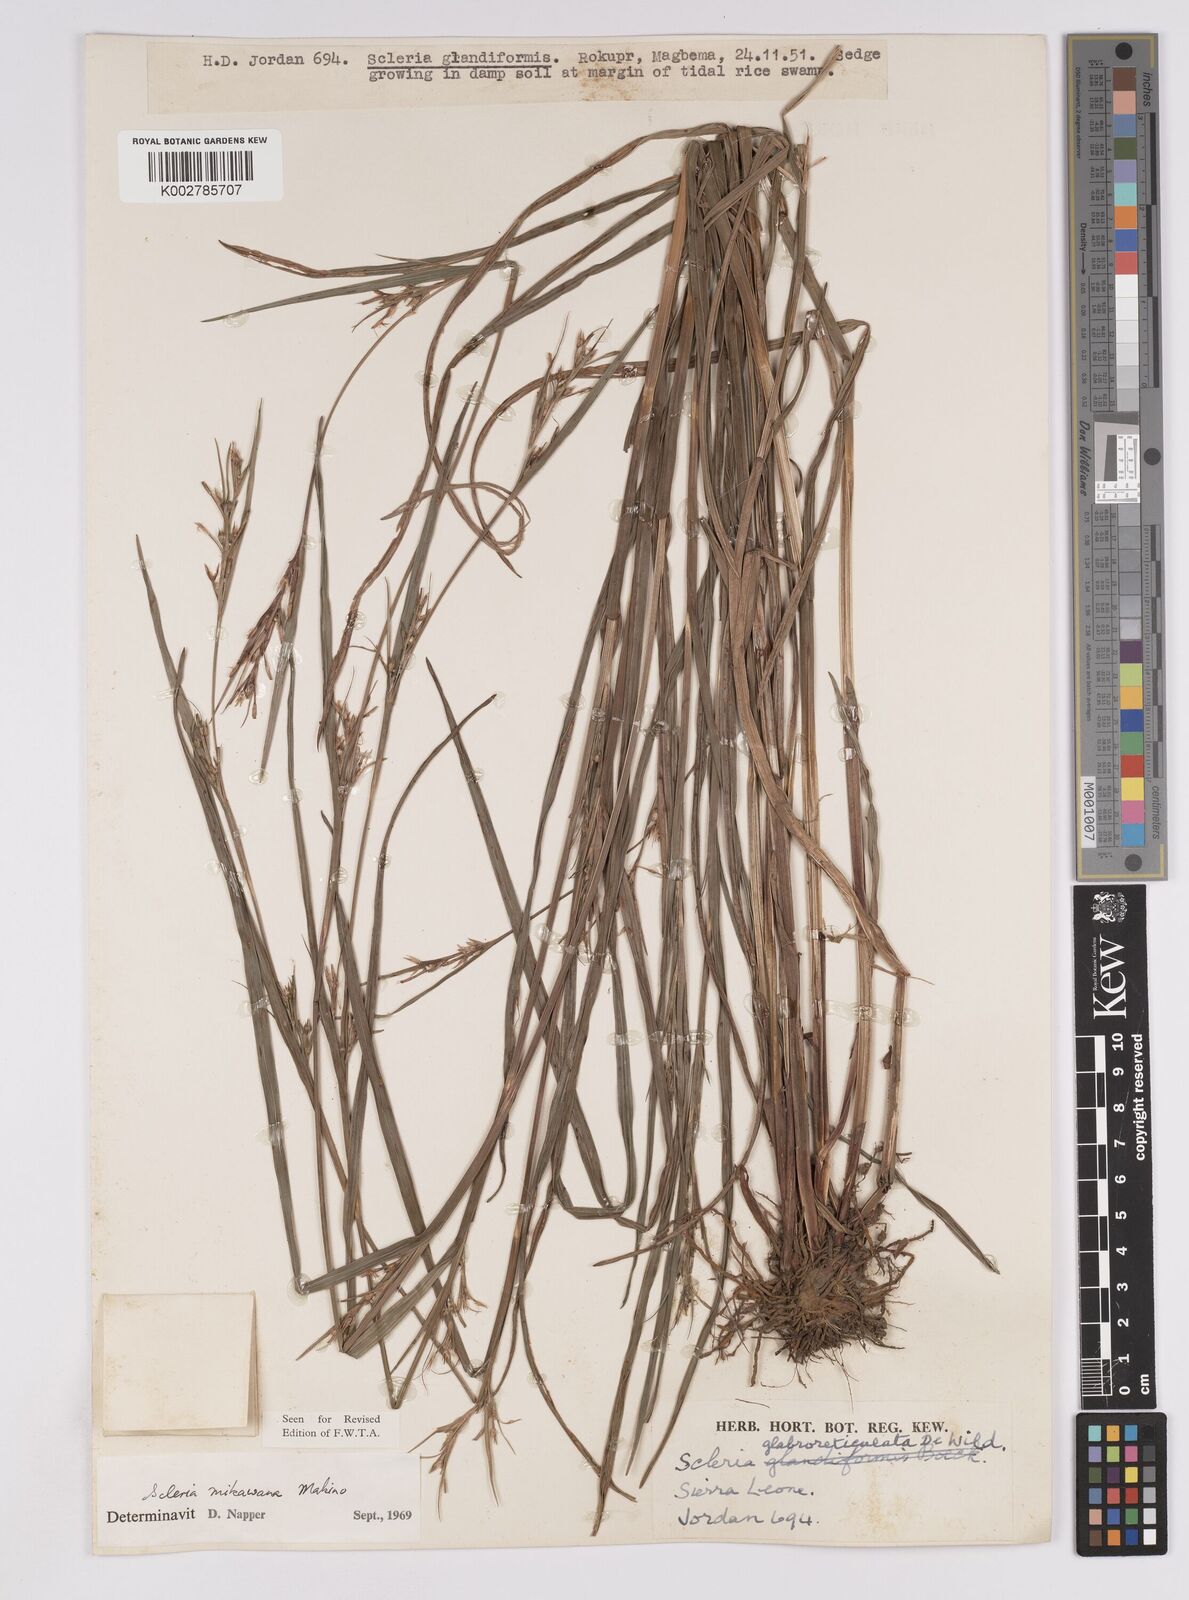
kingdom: Plantae
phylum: Tracheophyta
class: Liliopsida
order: Poales
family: Cyperaceae
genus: Scleria
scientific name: Scleria mikawana
